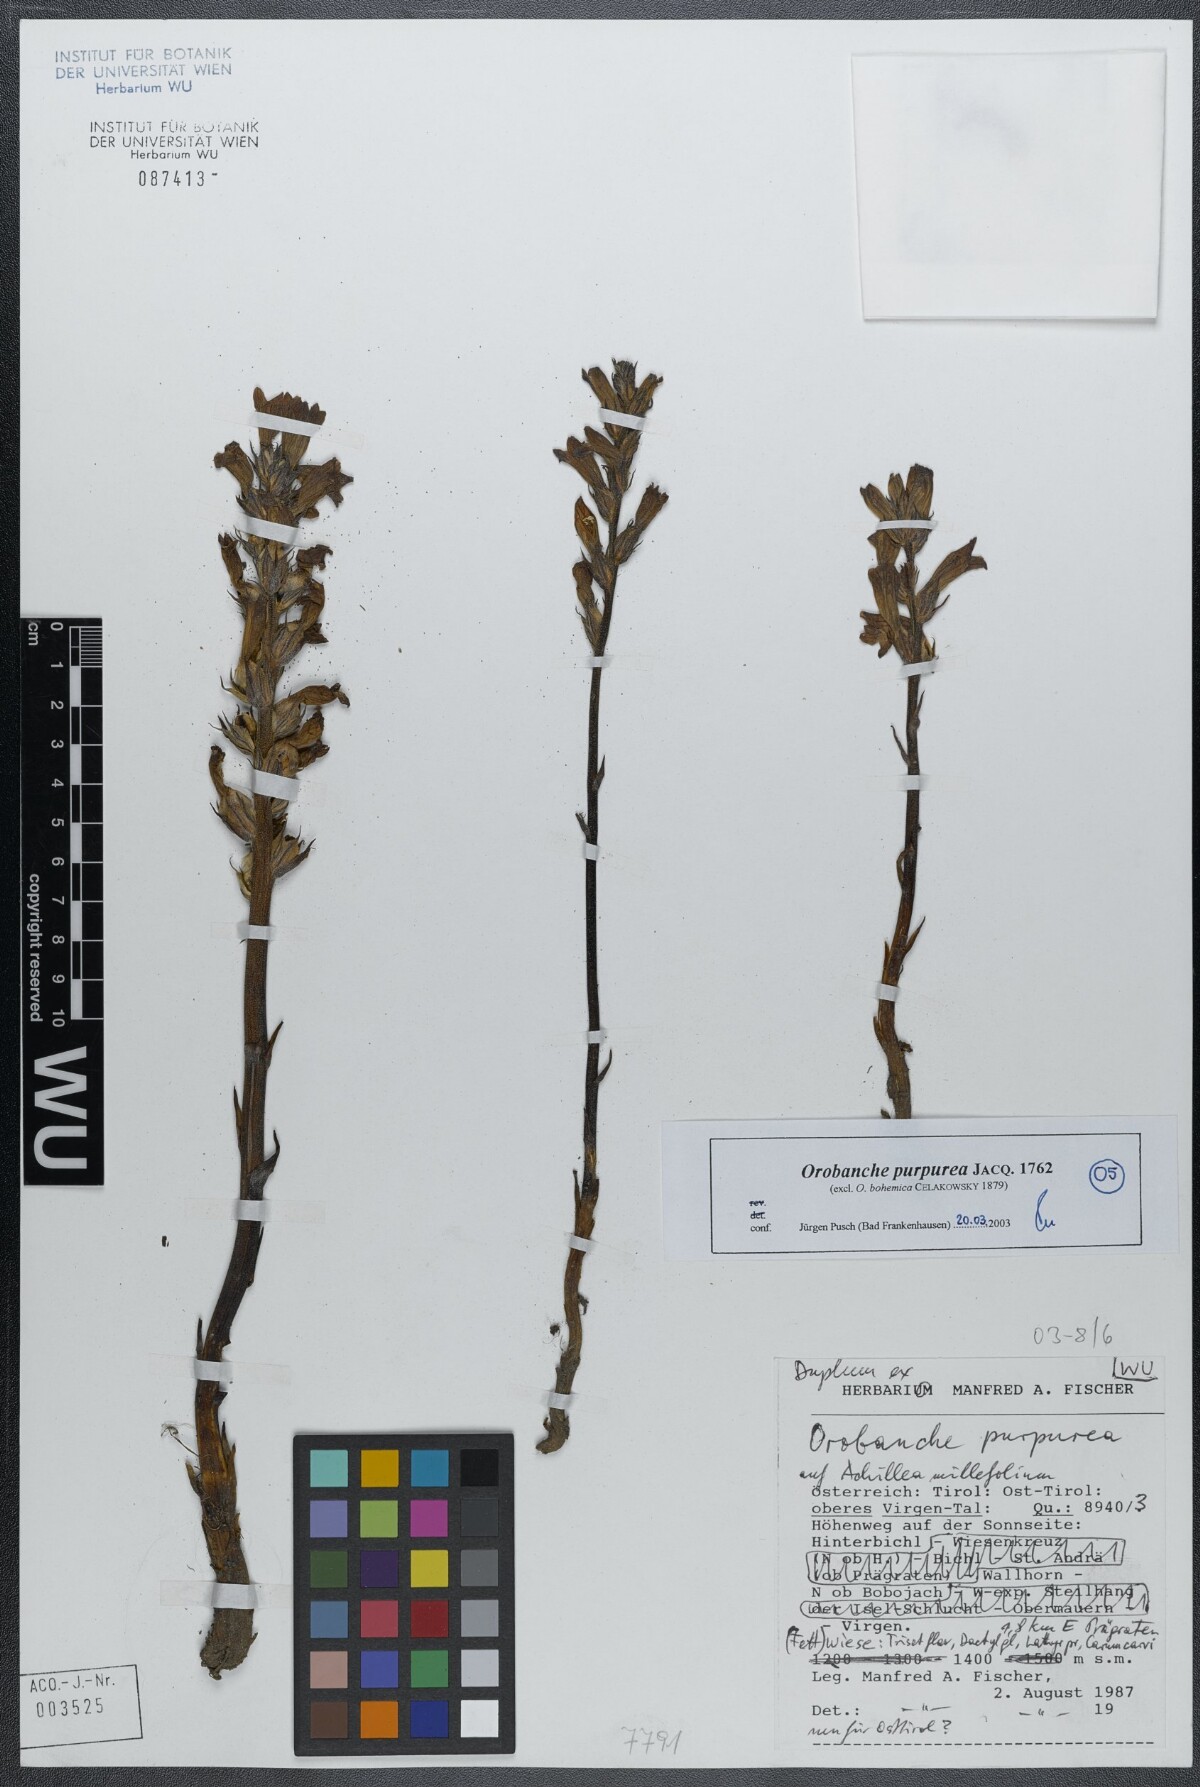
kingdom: Plantae
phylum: Tracheophyta
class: Magnoliopsida
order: Lamiales
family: Orobanchaceae
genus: Phelipanche
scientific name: Phelipanche purpurea
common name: Purple broomrape
